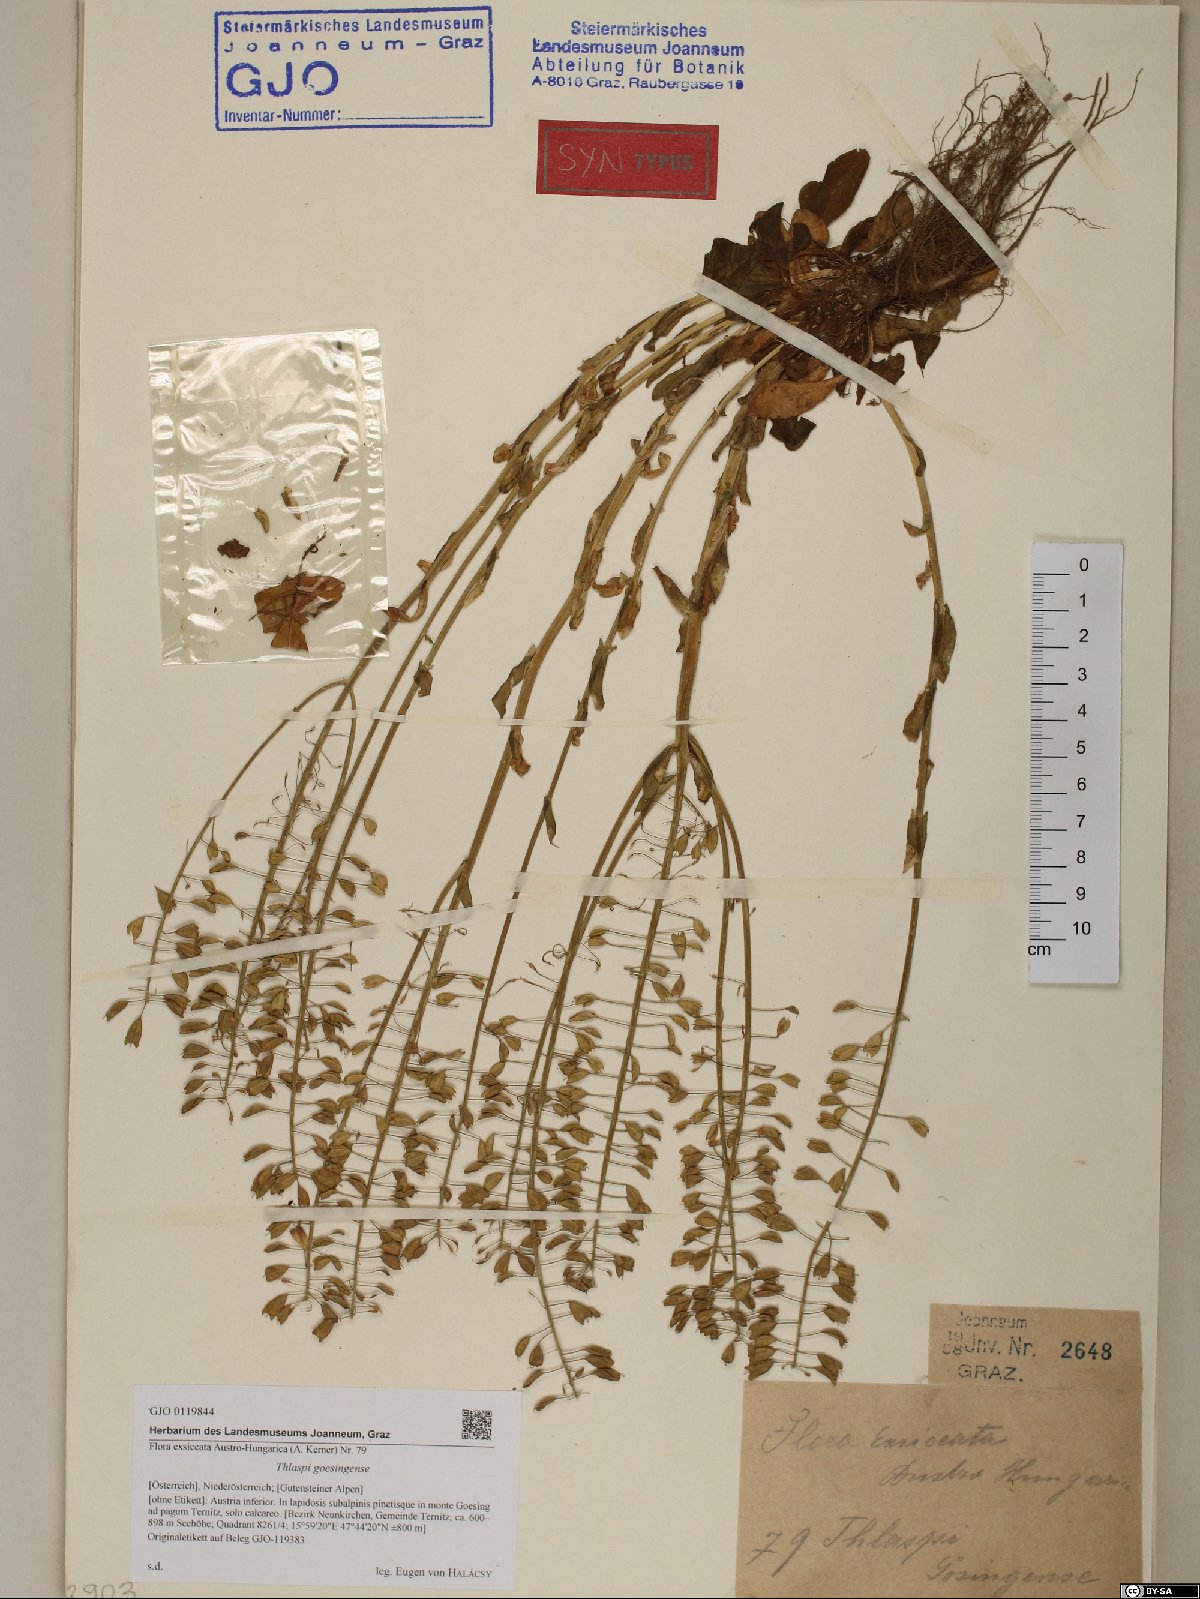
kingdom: Plantae
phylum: Tracheophyta
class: Magnoliopsida
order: Brassicales
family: Brassicaceae
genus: Noccaea
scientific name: Noccaea goesingensis
